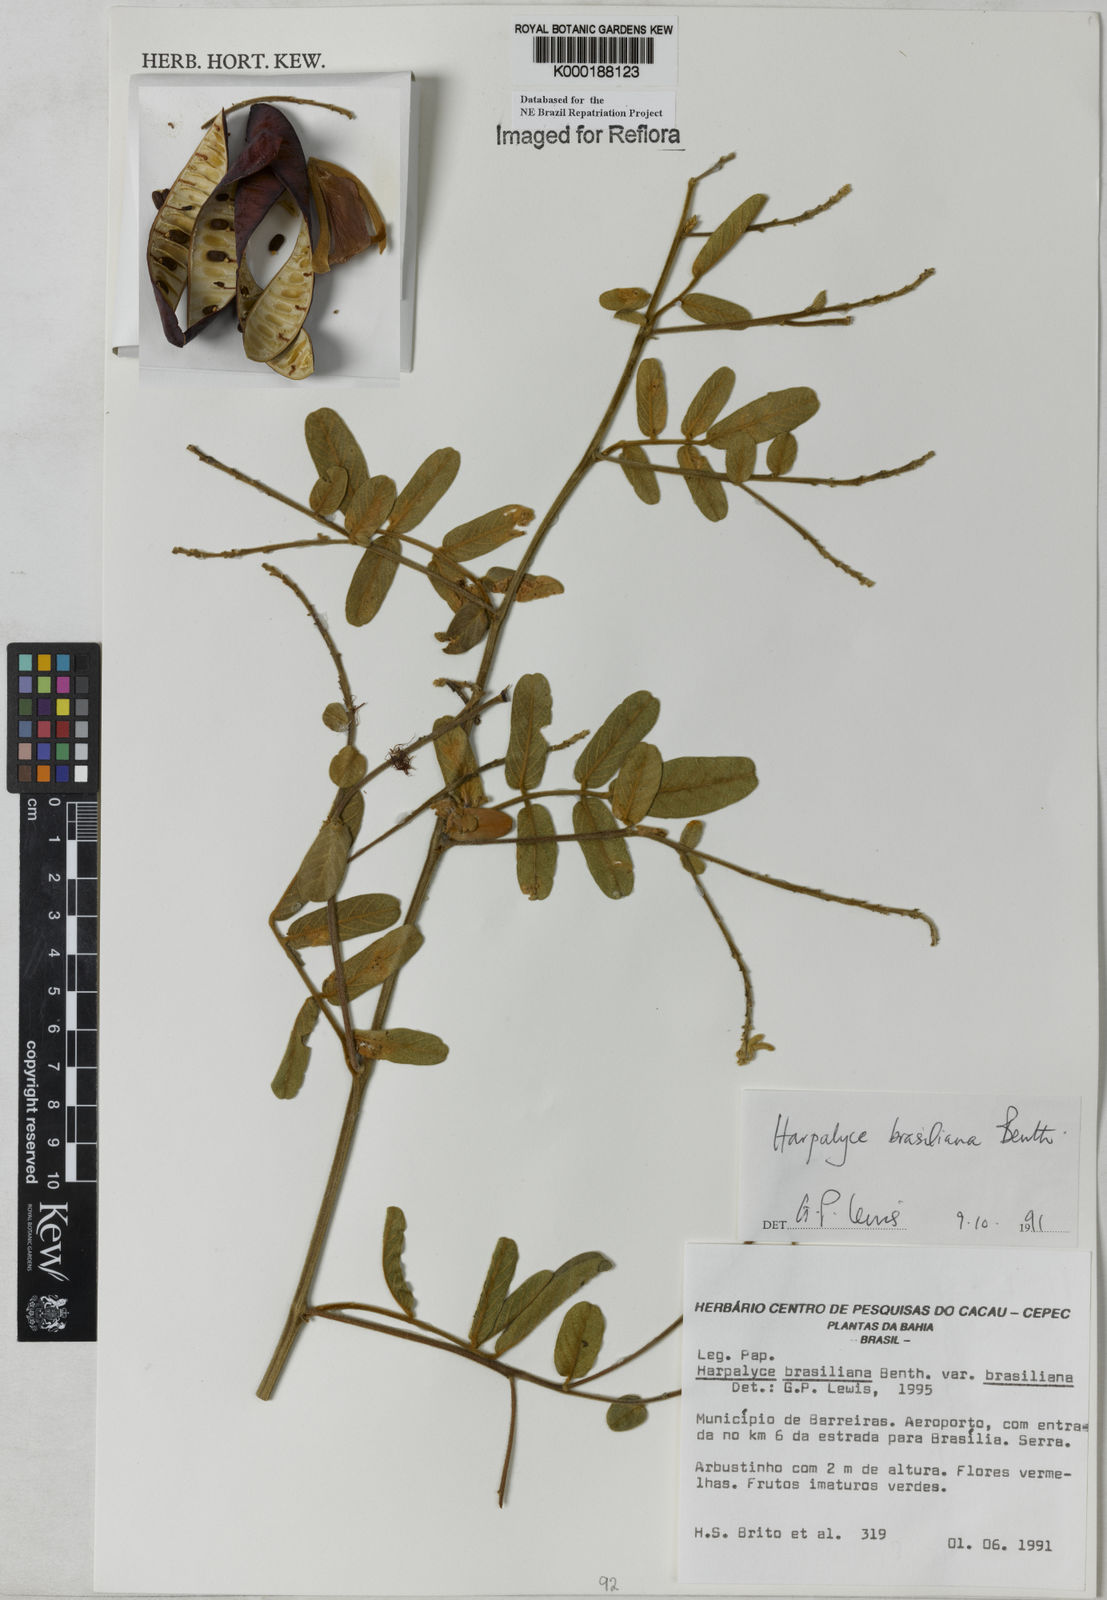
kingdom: Plantae
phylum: Tracheophyta
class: Magnoliopsida
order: Fabales
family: Fabaceae
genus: Harpalyce
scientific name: Harpalyce brasiliana
